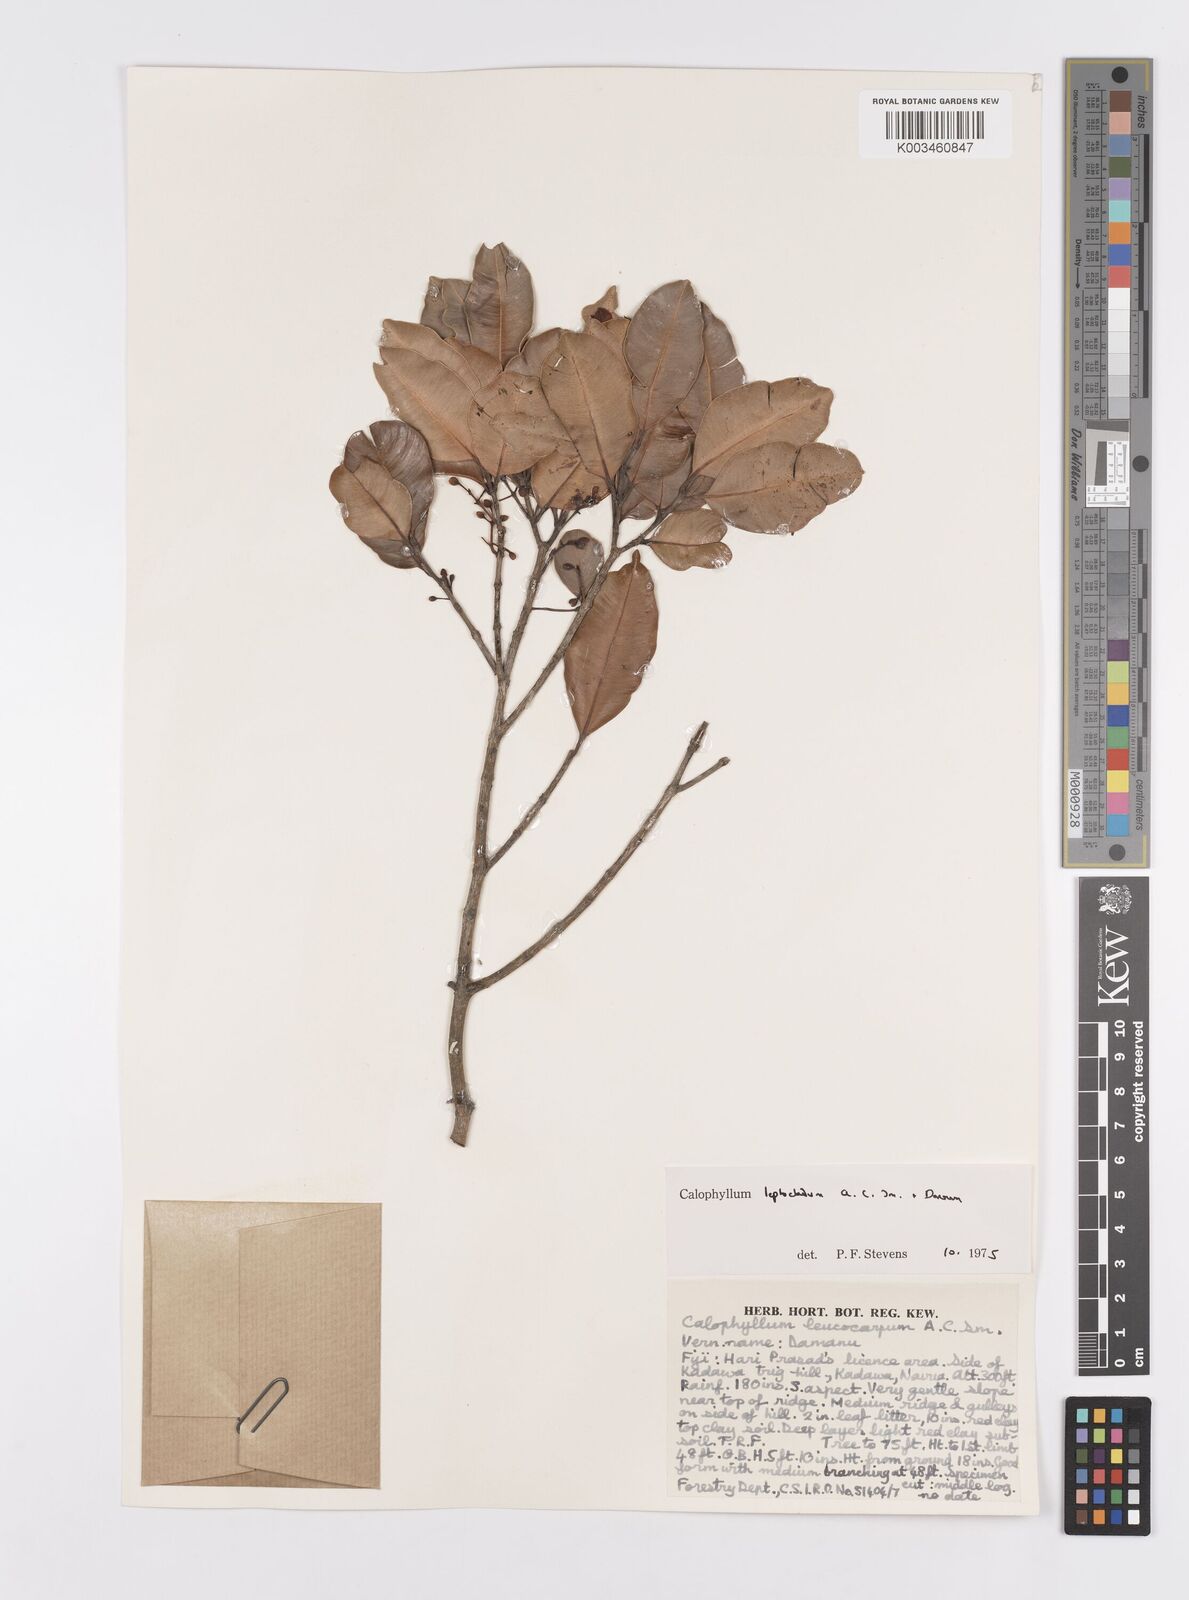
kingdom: Plantae
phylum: Tracheophyta
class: Magnoliopsida
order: Malpighiales
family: Calophyllaceae
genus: Calophyllum
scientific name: Calophyllum leptocladum
